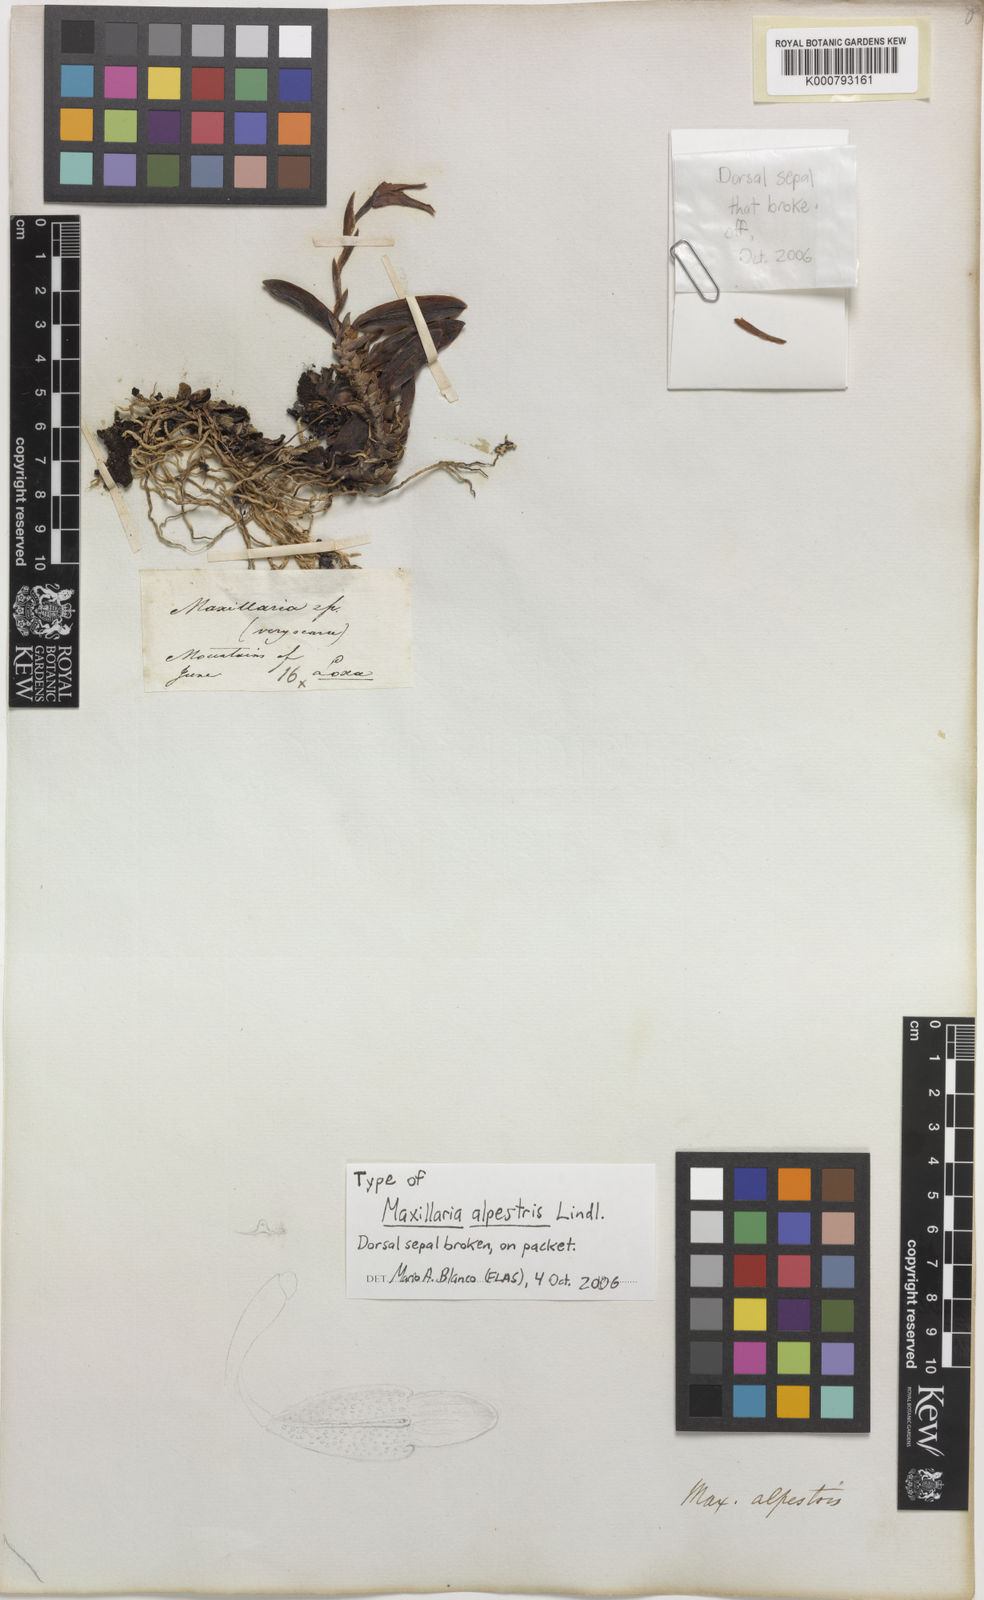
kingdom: Plantae
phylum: Tracheophyta
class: Liliopsida
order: Asparagales
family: Orchidaceae
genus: Maxillaria
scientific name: Maxillaria alpestris
